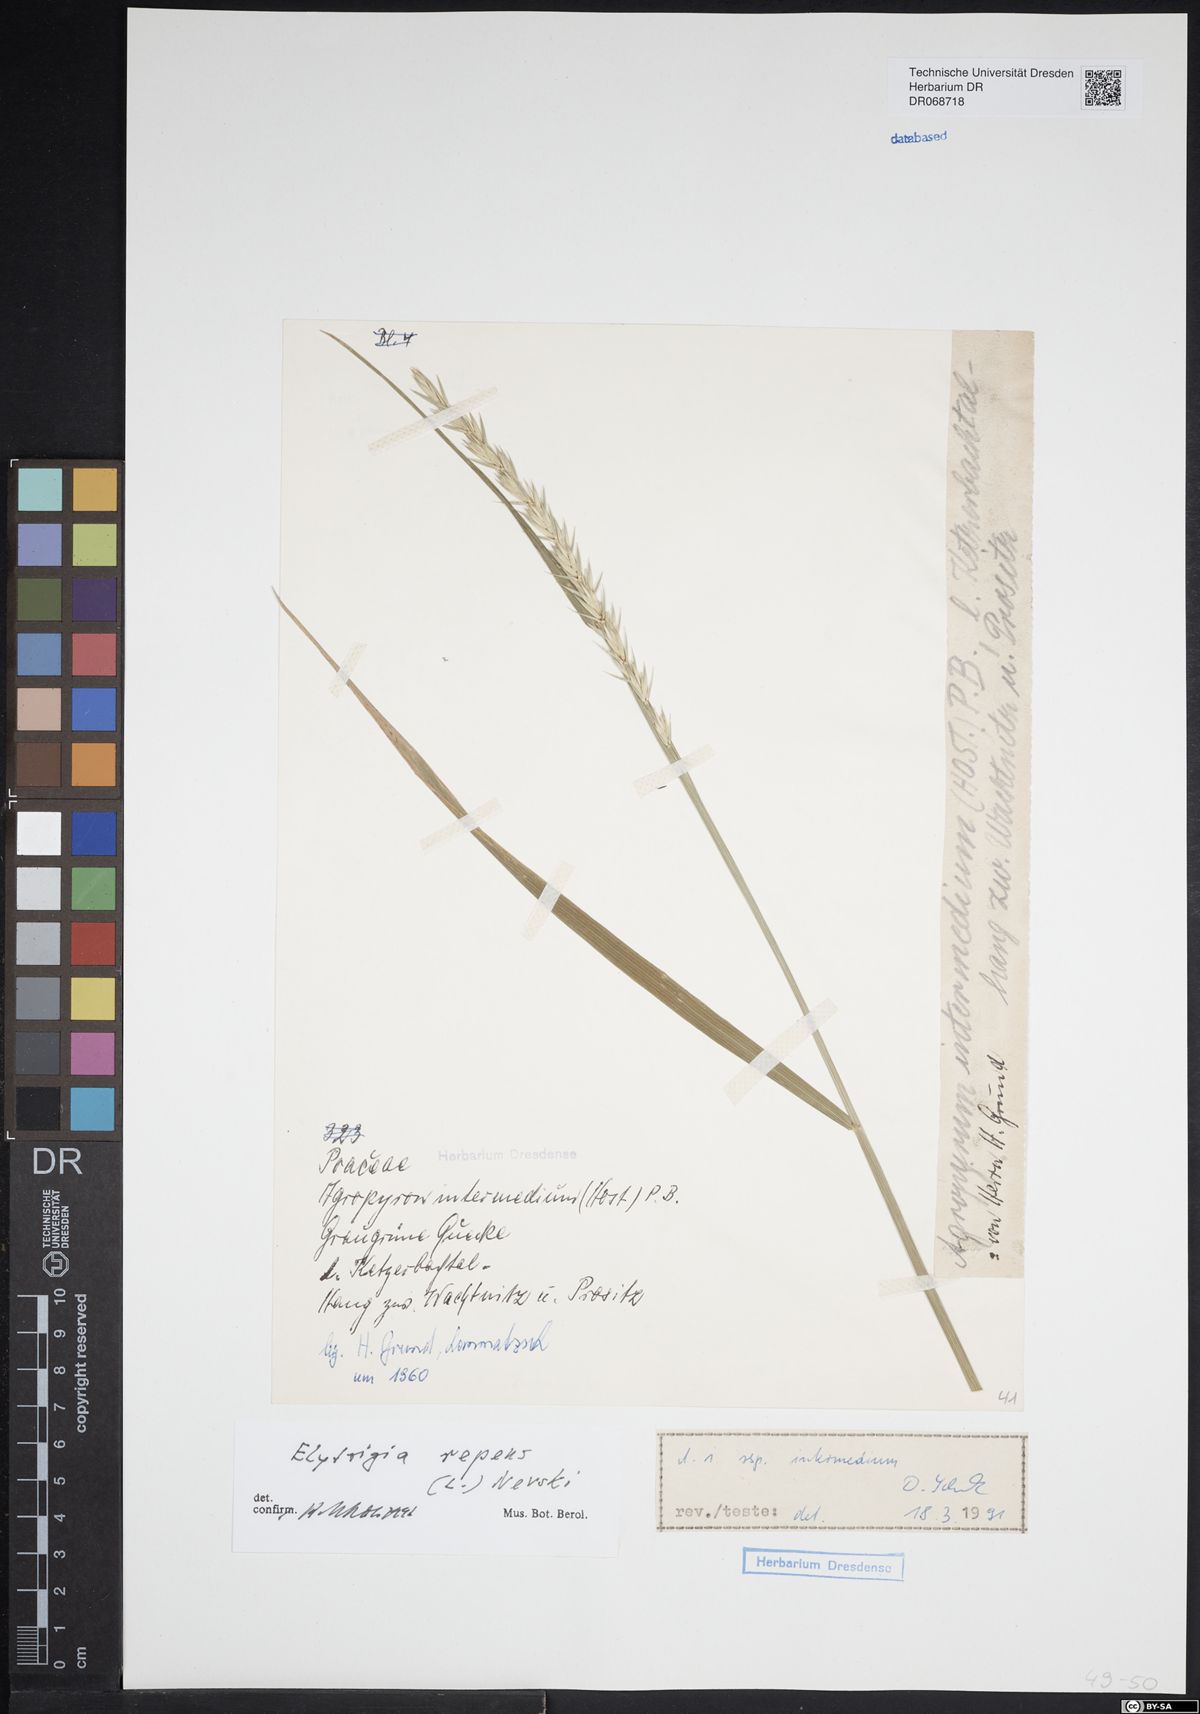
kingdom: Plantae
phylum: Tracheophyta
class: Liliopsida
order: Poales
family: Poaceae
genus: Elymus
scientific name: Elymus repens
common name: Quackgrass
